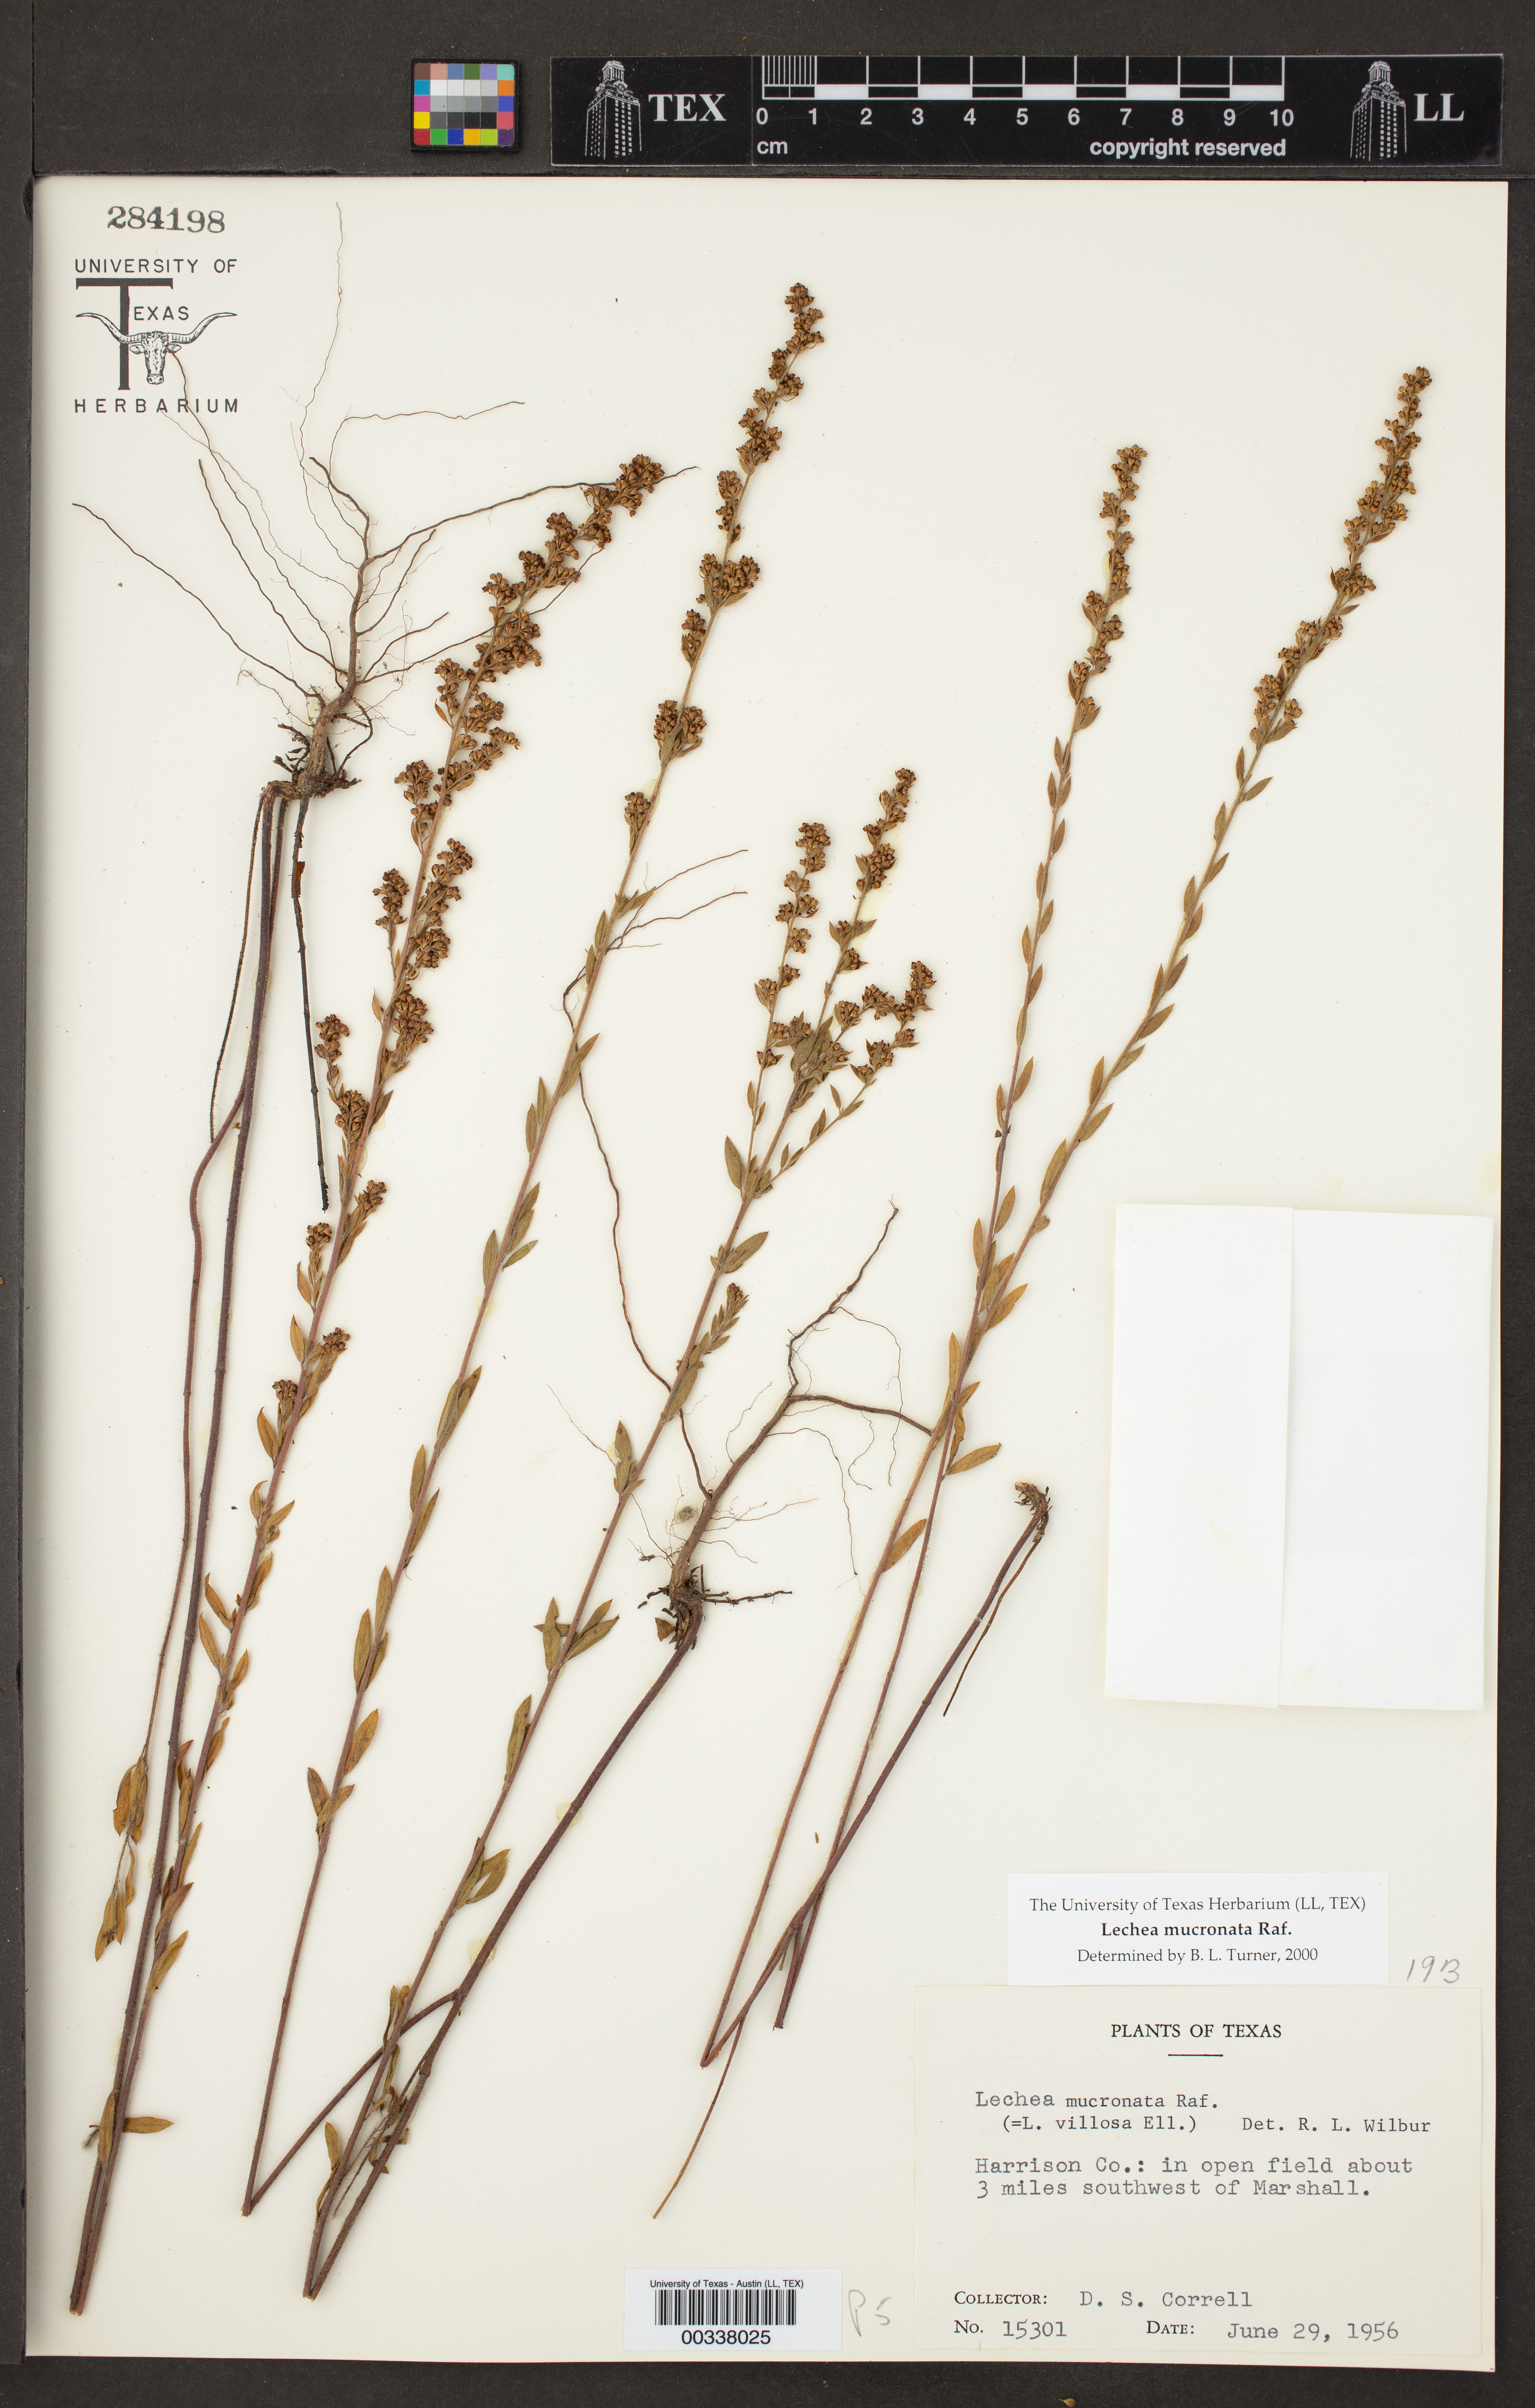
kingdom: Plantae
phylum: Tracheophyta
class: Magnoliopsida
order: Malvales
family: Cistaceae
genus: Lechea
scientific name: Lechea mucronata
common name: Hairy pinweed
